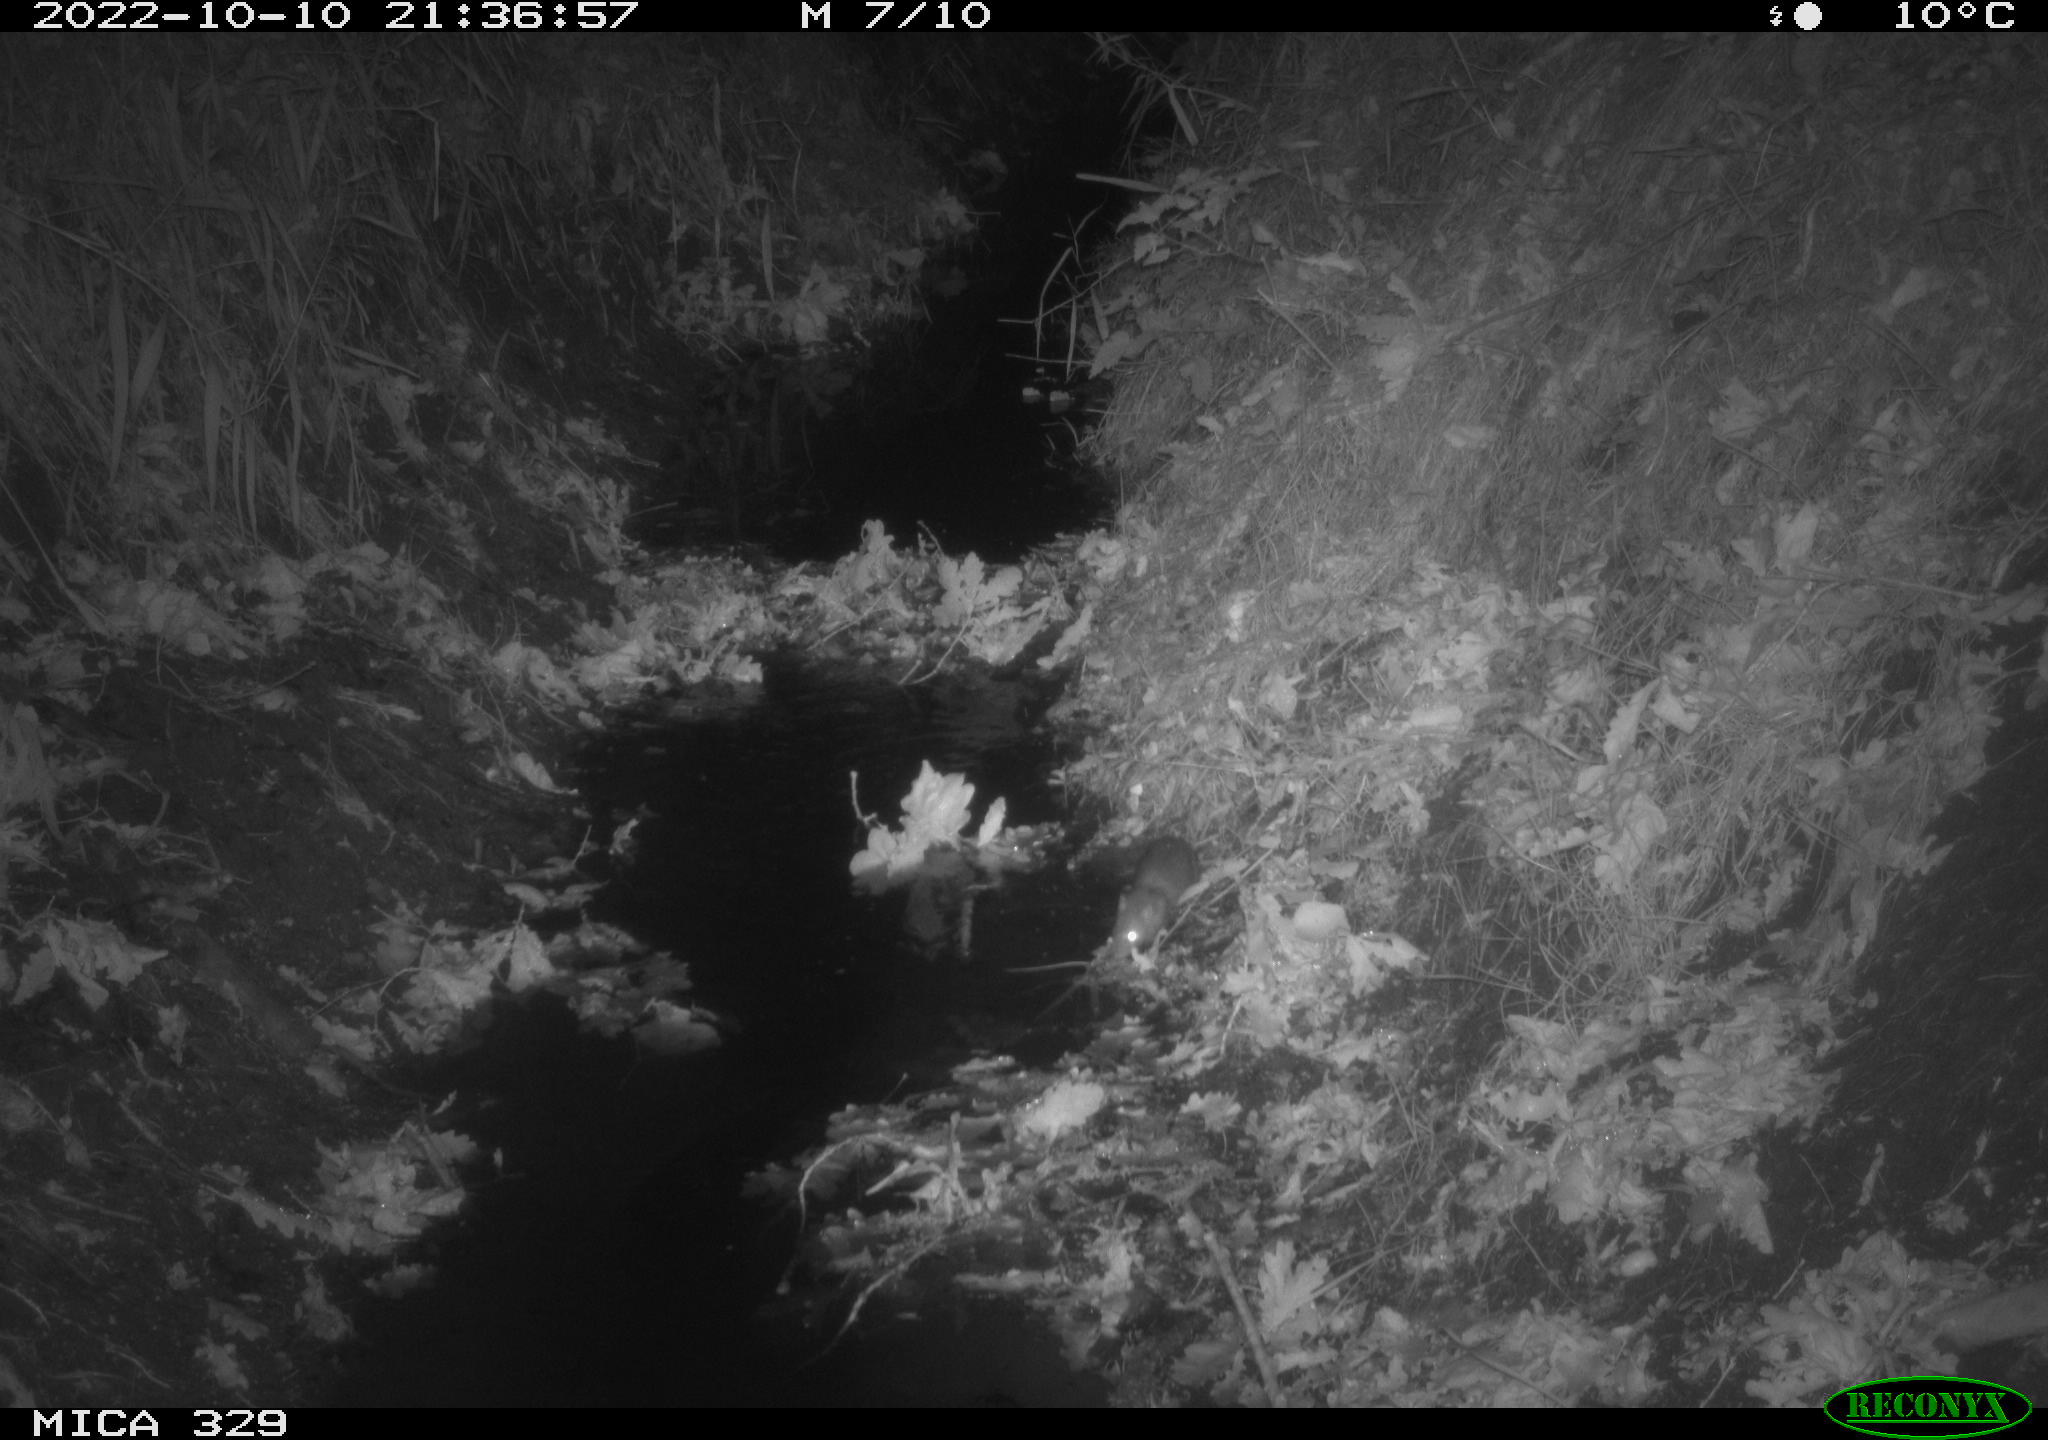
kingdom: Animalia
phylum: Chordata
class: Mammalia
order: Rodentia
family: Muridae
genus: Rattus
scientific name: Rattus norvegicus
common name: Brown rat
